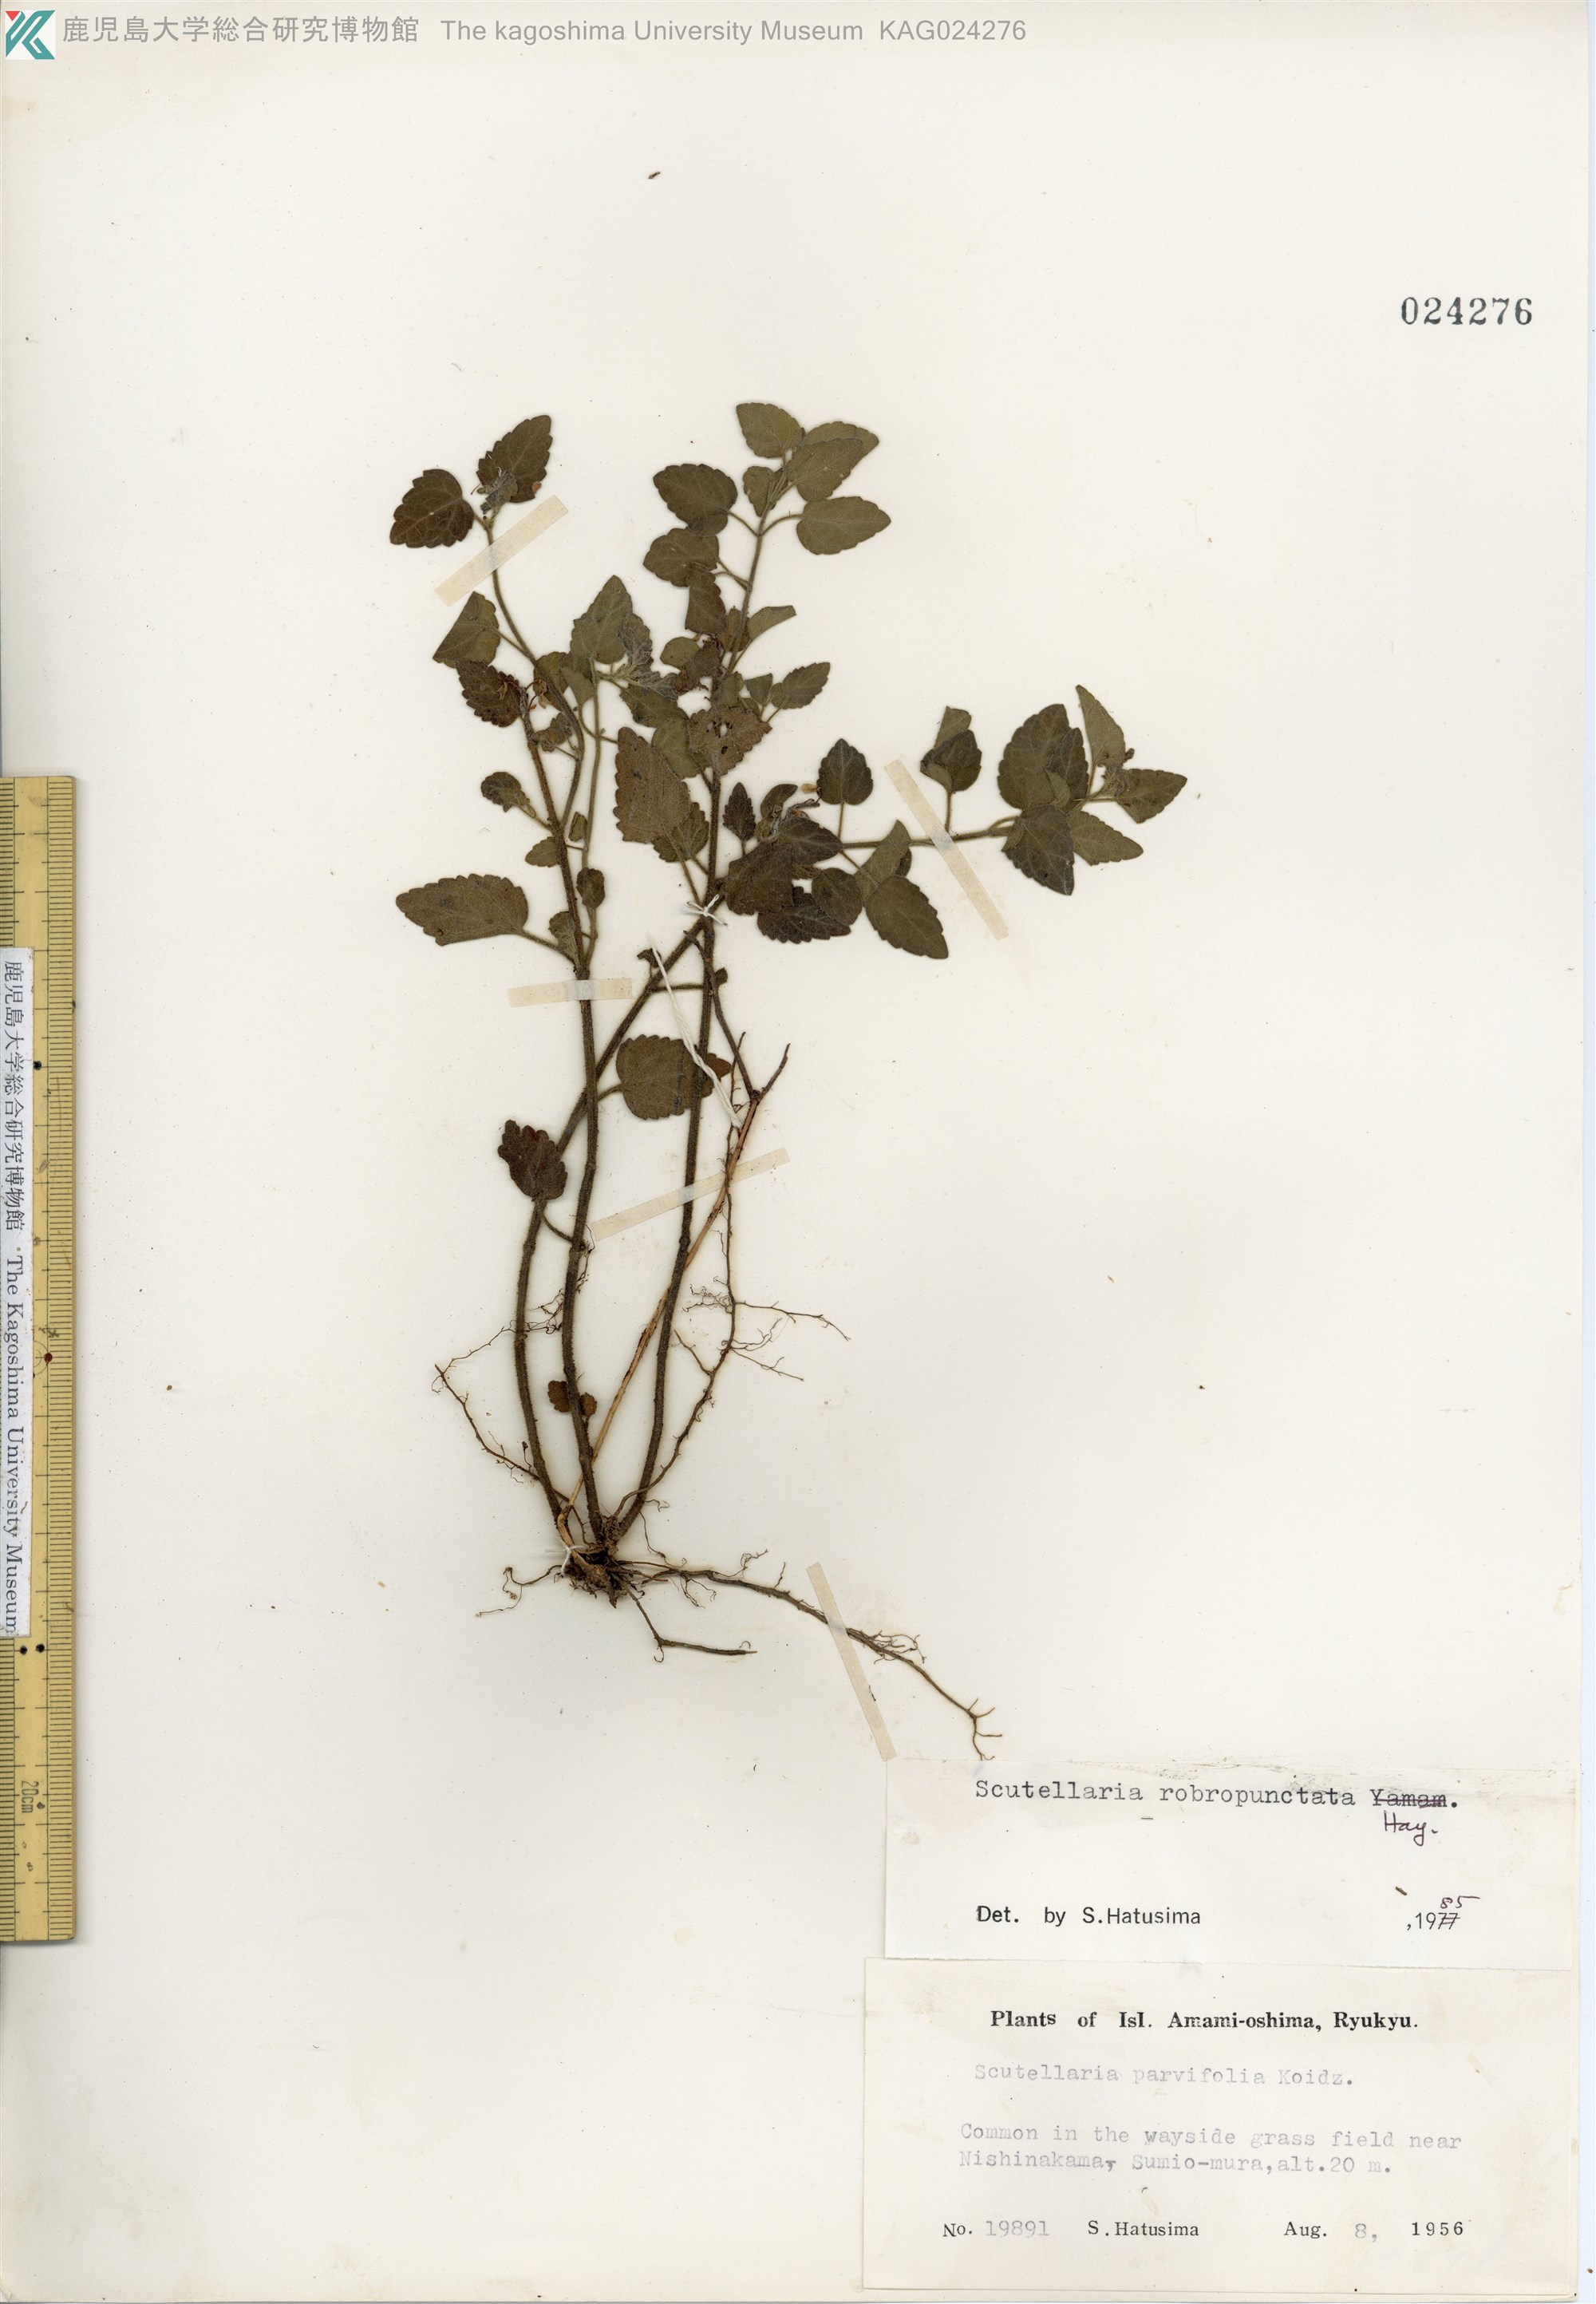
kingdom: Plantae
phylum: Tracheophyta
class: Magnoliopsida
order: Lamiales
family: Lamiaceae
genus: Scutellaria
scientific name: Scutellaria rubropunctata
